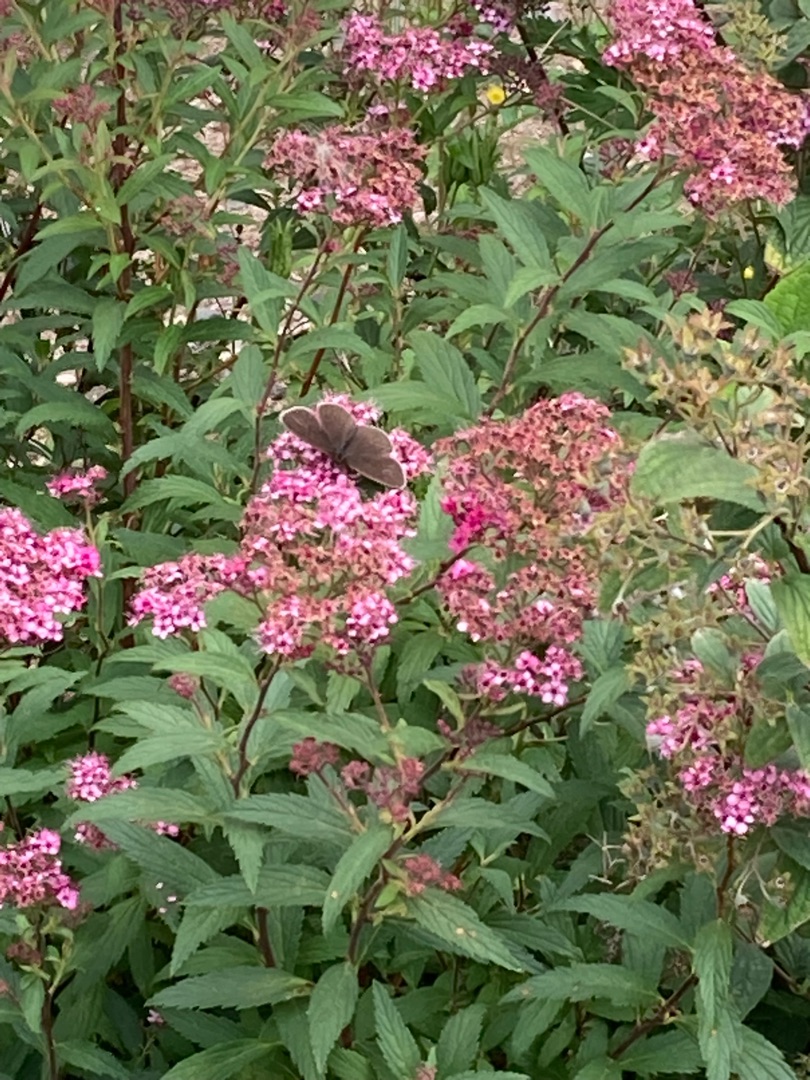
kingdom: Animalia
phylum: Arthropoda
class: Insecta
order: Lepidoptera
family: Nymphalidae
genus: Aphantopus
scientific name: Aphantopus hyperantus
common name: Engrandøje
